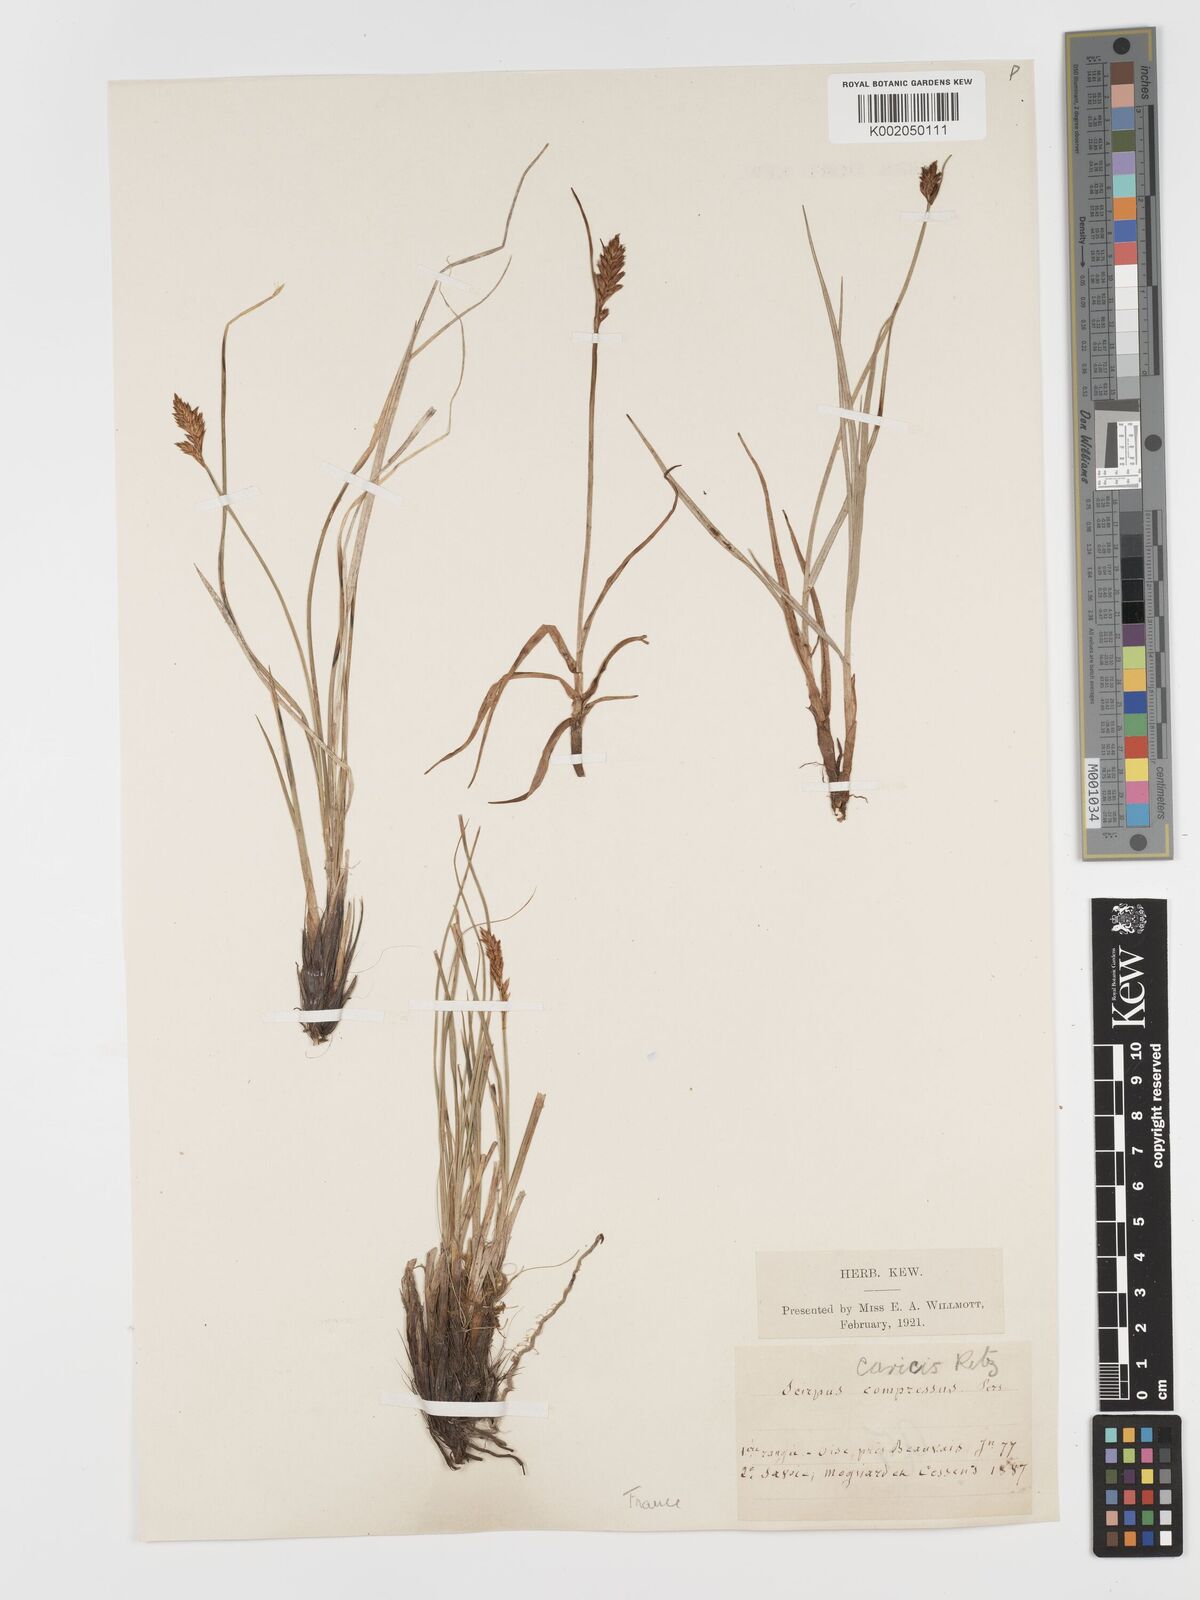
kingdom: Plantae
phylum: Tracheophyta
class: Liliopsida
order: Poales
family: Cyperaceae
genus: Blysmus
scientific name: Blysmus compressus
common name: Flat-sedge
